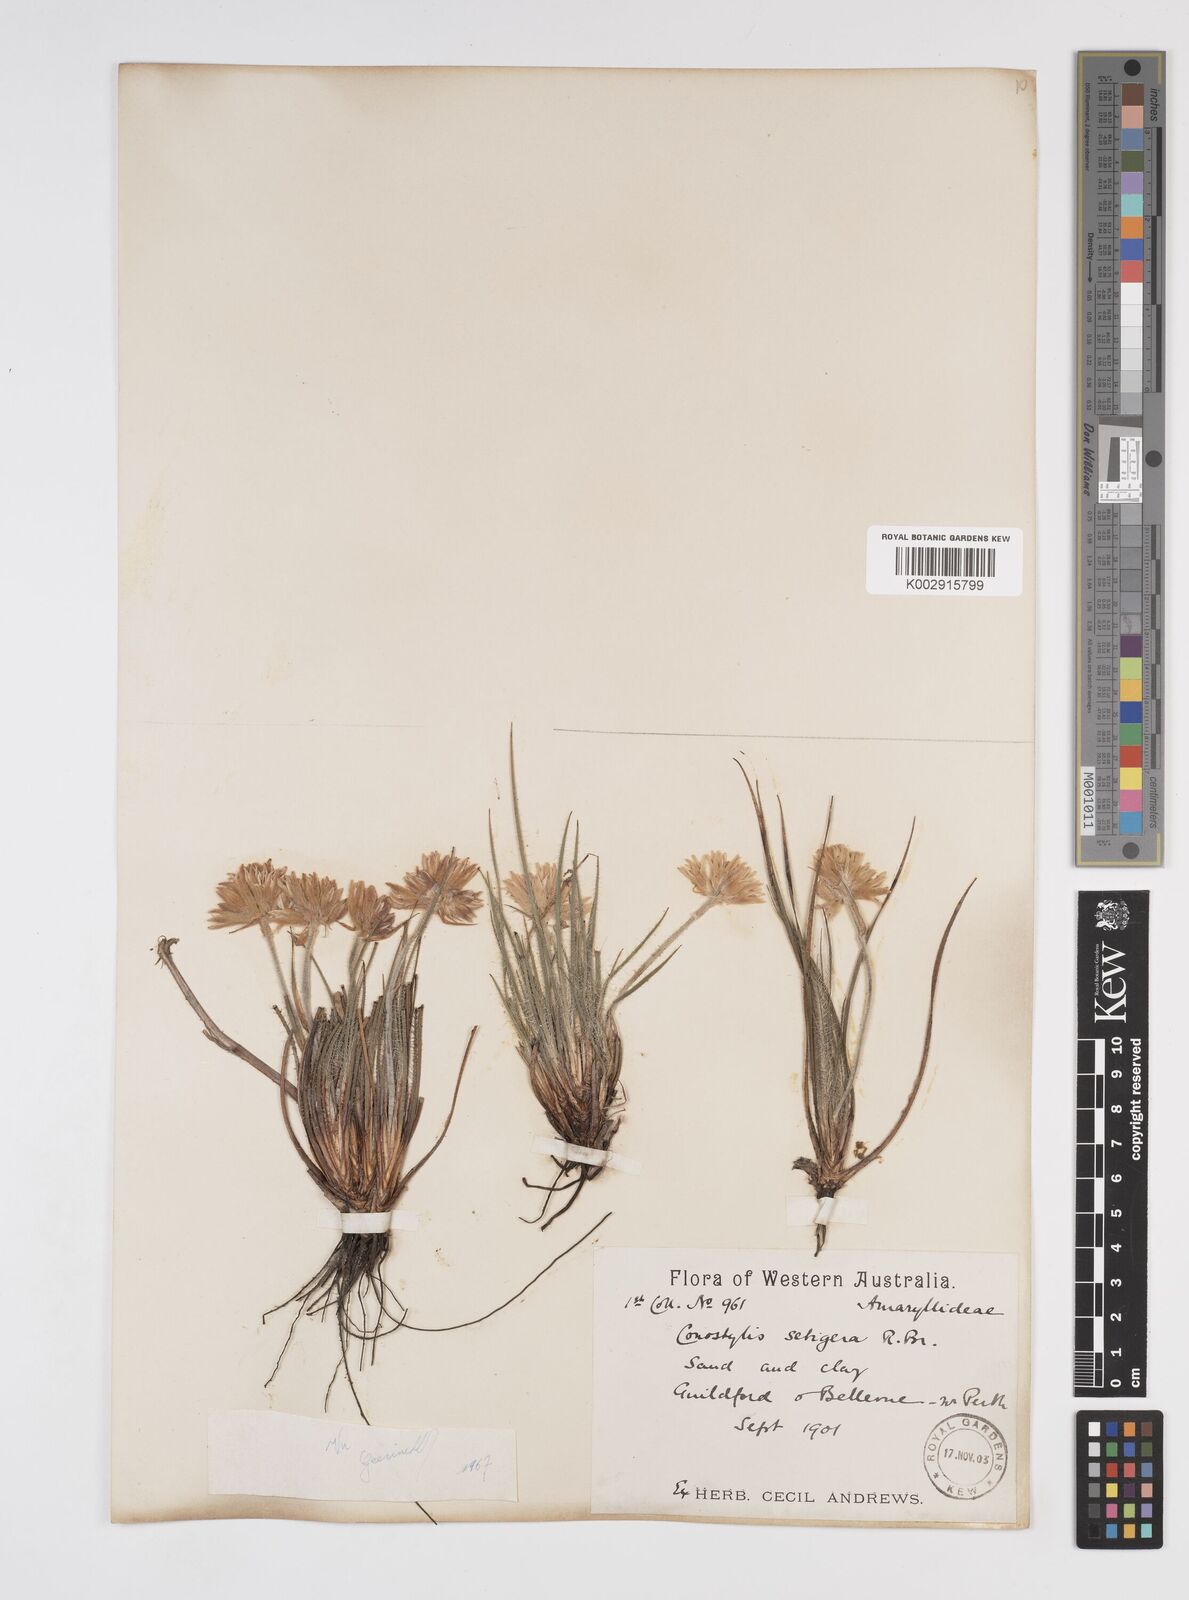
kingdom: Plantae
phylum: Tracheophyta
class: Liliopsida
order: Commelinales
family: Haemodoraceae
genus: Conostylis
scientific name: Conostylis setigera
